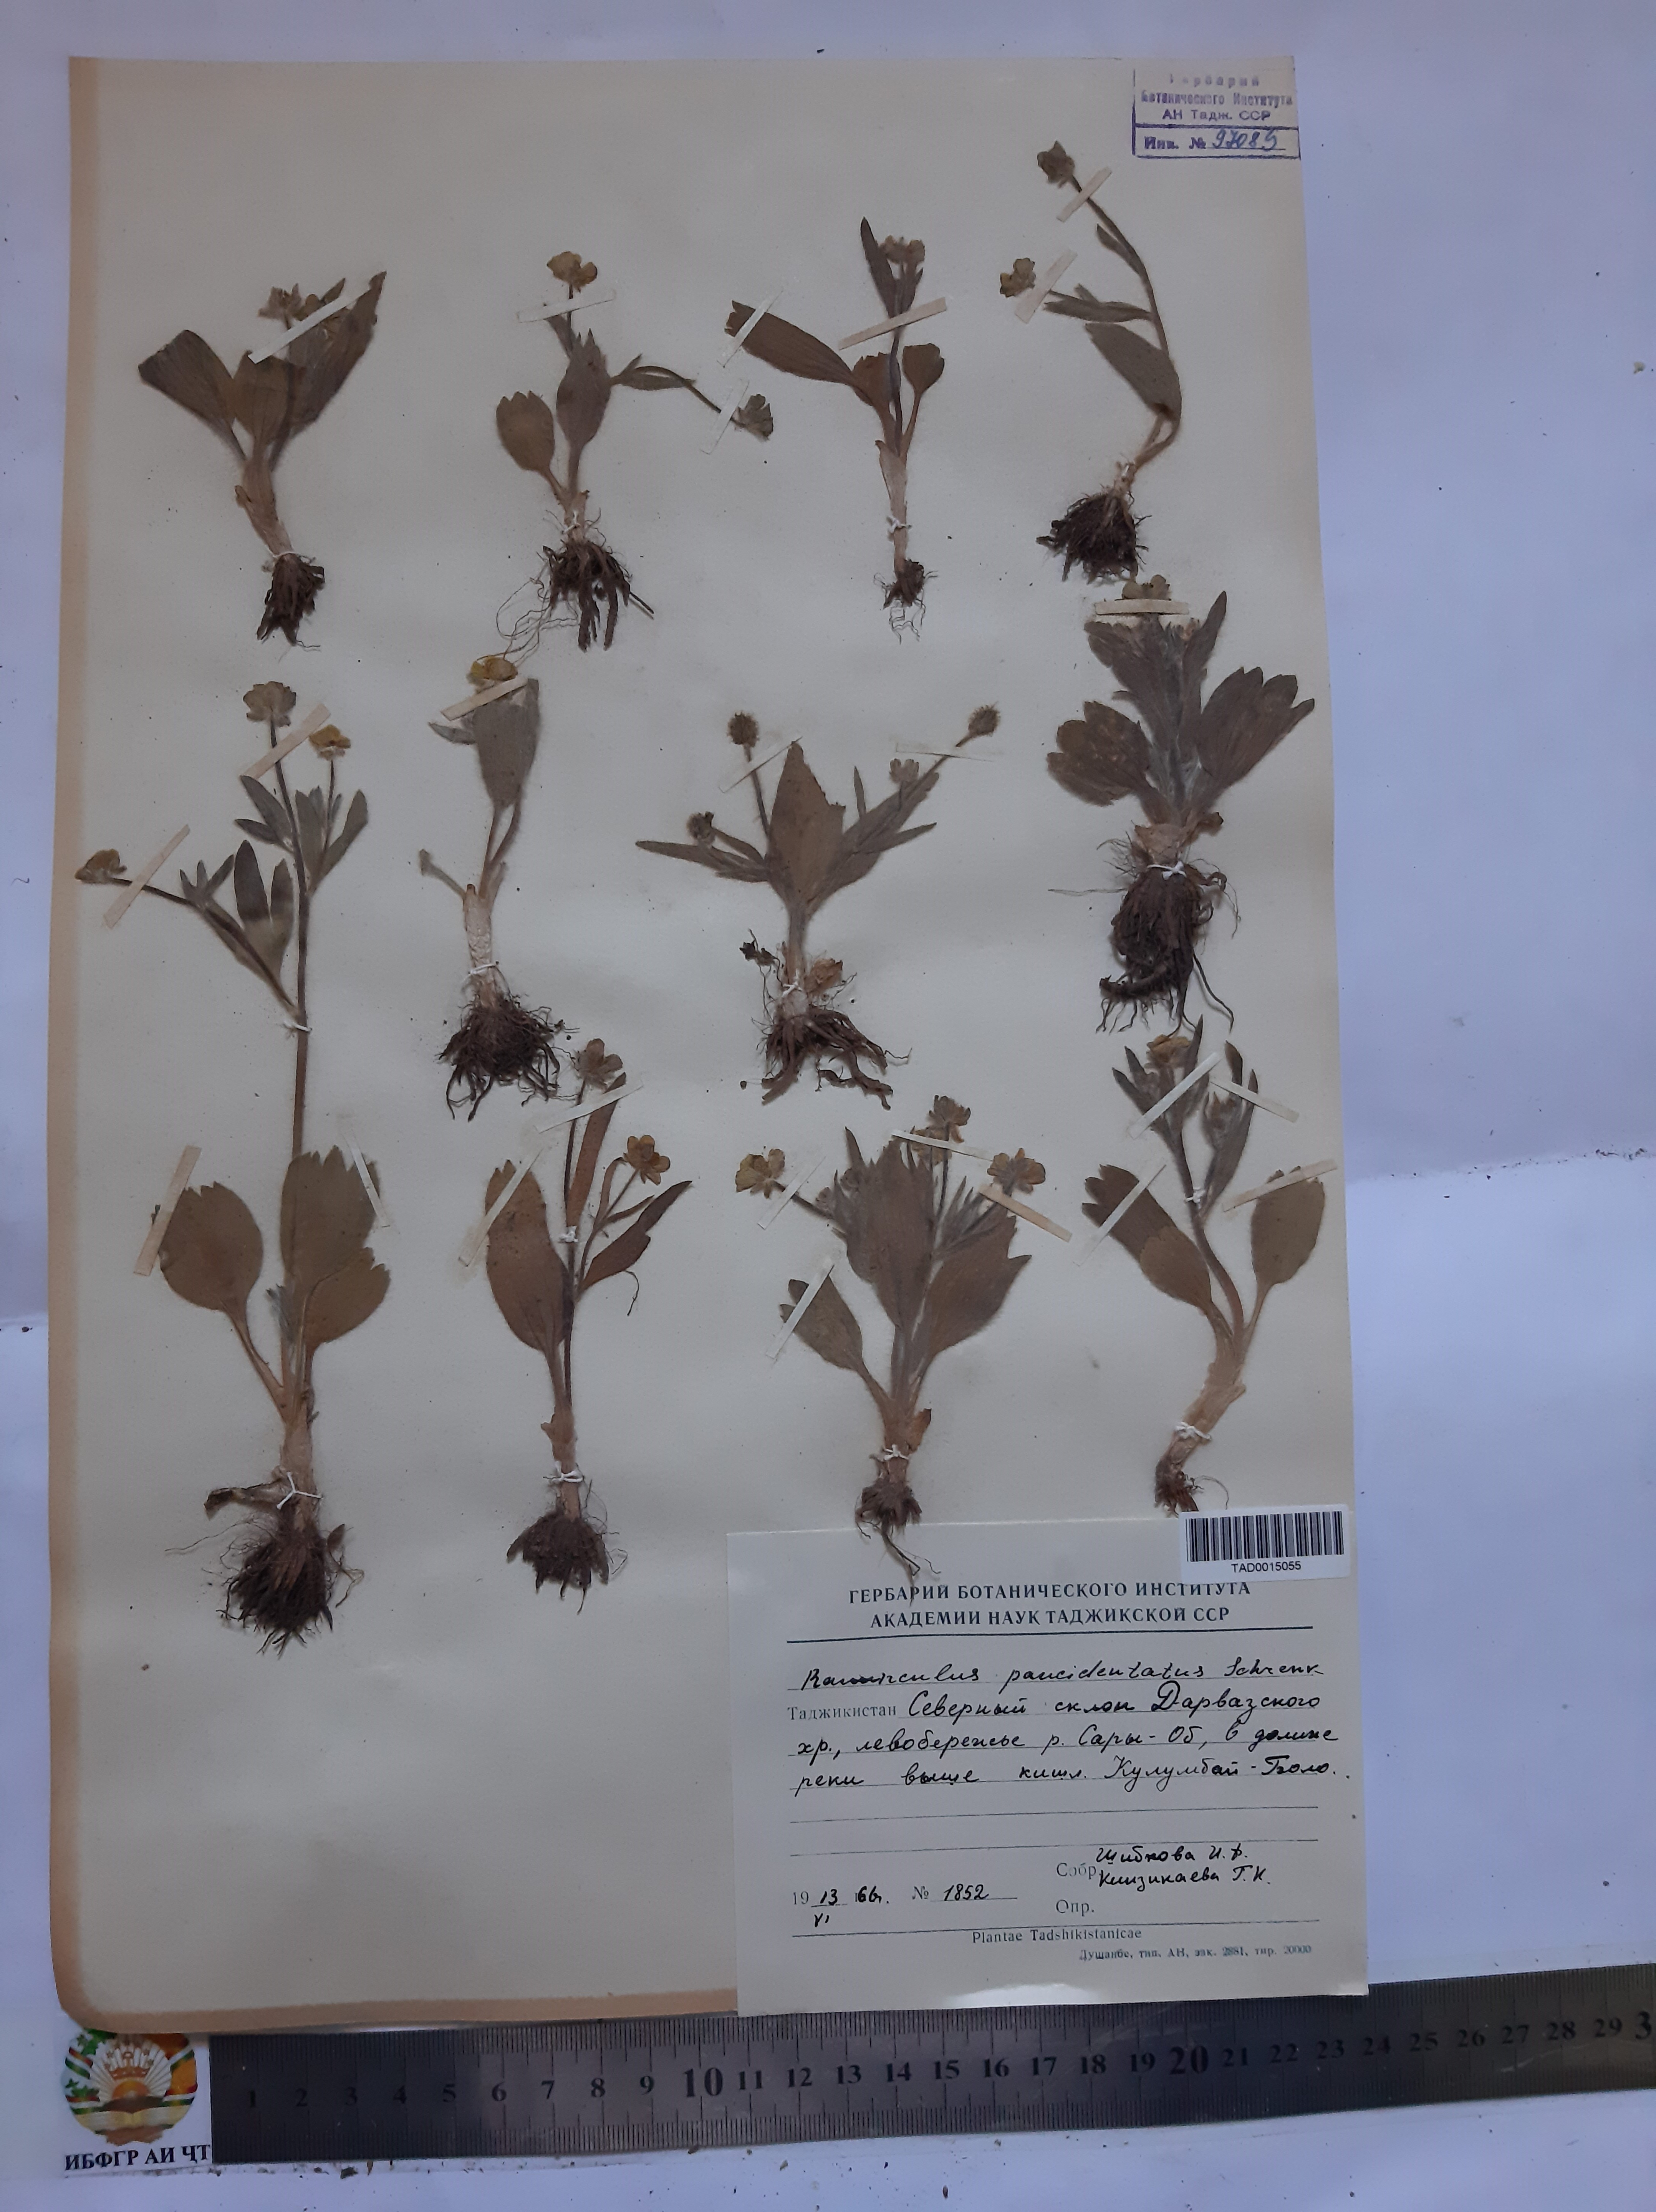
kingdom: Plantae
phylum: Tracheophyta
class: Magnoliopsida
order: Ranunculales
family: Ranunculaceae
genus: Ranunculus
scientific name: Ranunculus paucidentatus
